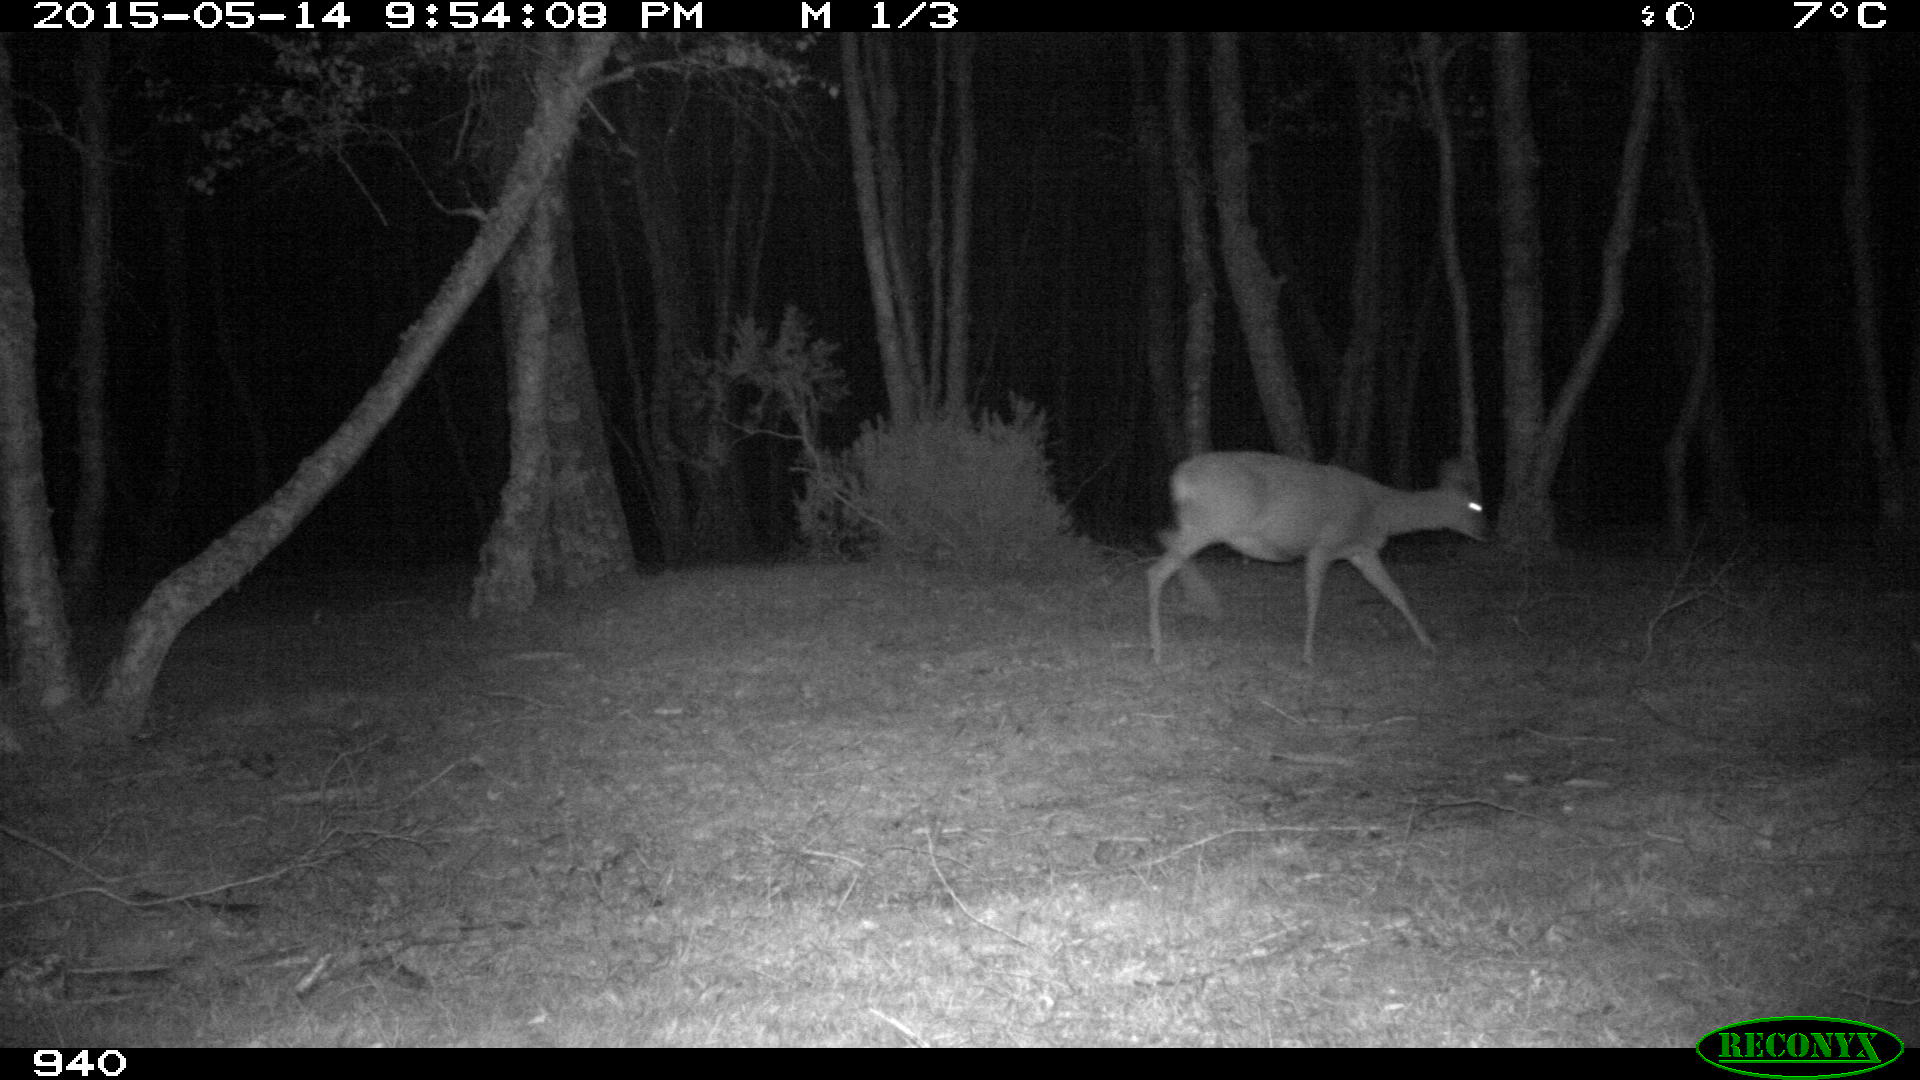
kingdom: Animalia
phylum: Chordata
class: Mammalia
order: Artiodactyla
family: Cervidae
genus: Capreolus
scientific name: Capreolus capreolus
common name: Western roe deer
